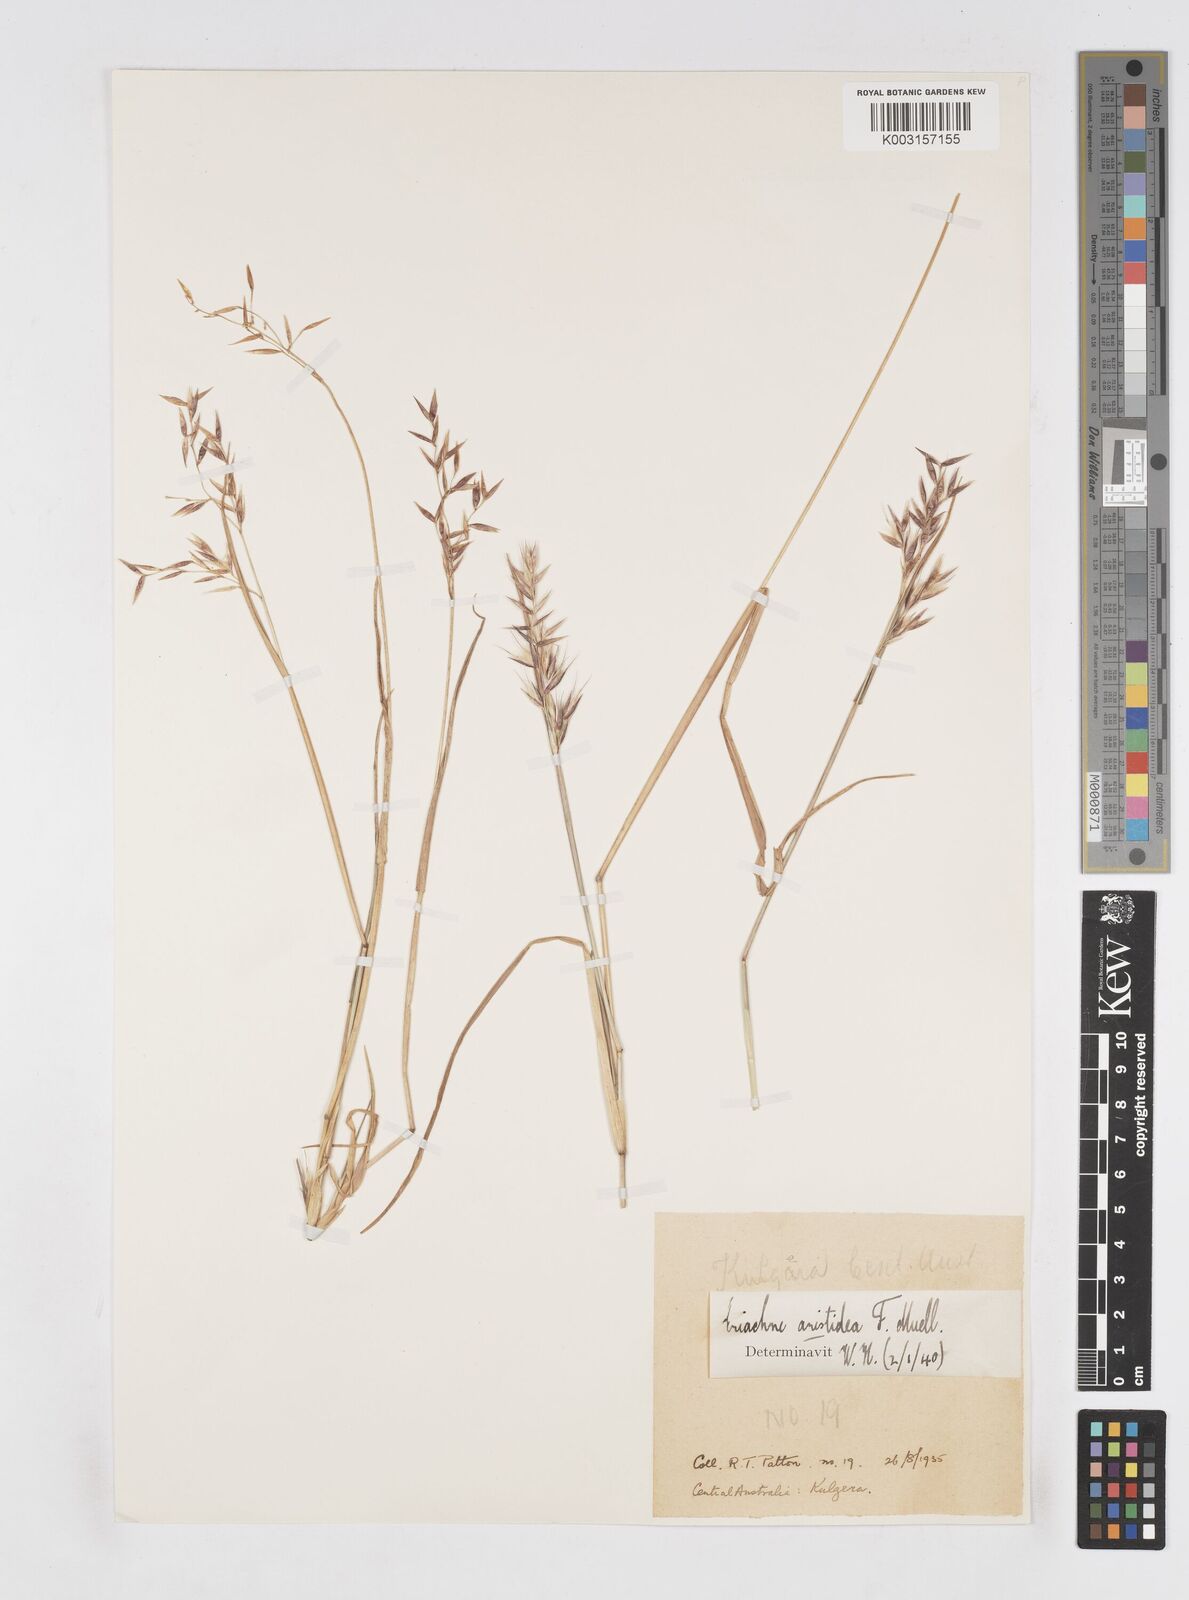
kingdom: Plantae
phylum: Tracheophyta
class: Liliopsida
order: Poales
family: Poaceae
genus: Eriachne
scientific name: Eriachne aristidea
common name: Three-awn wanderrie grass
